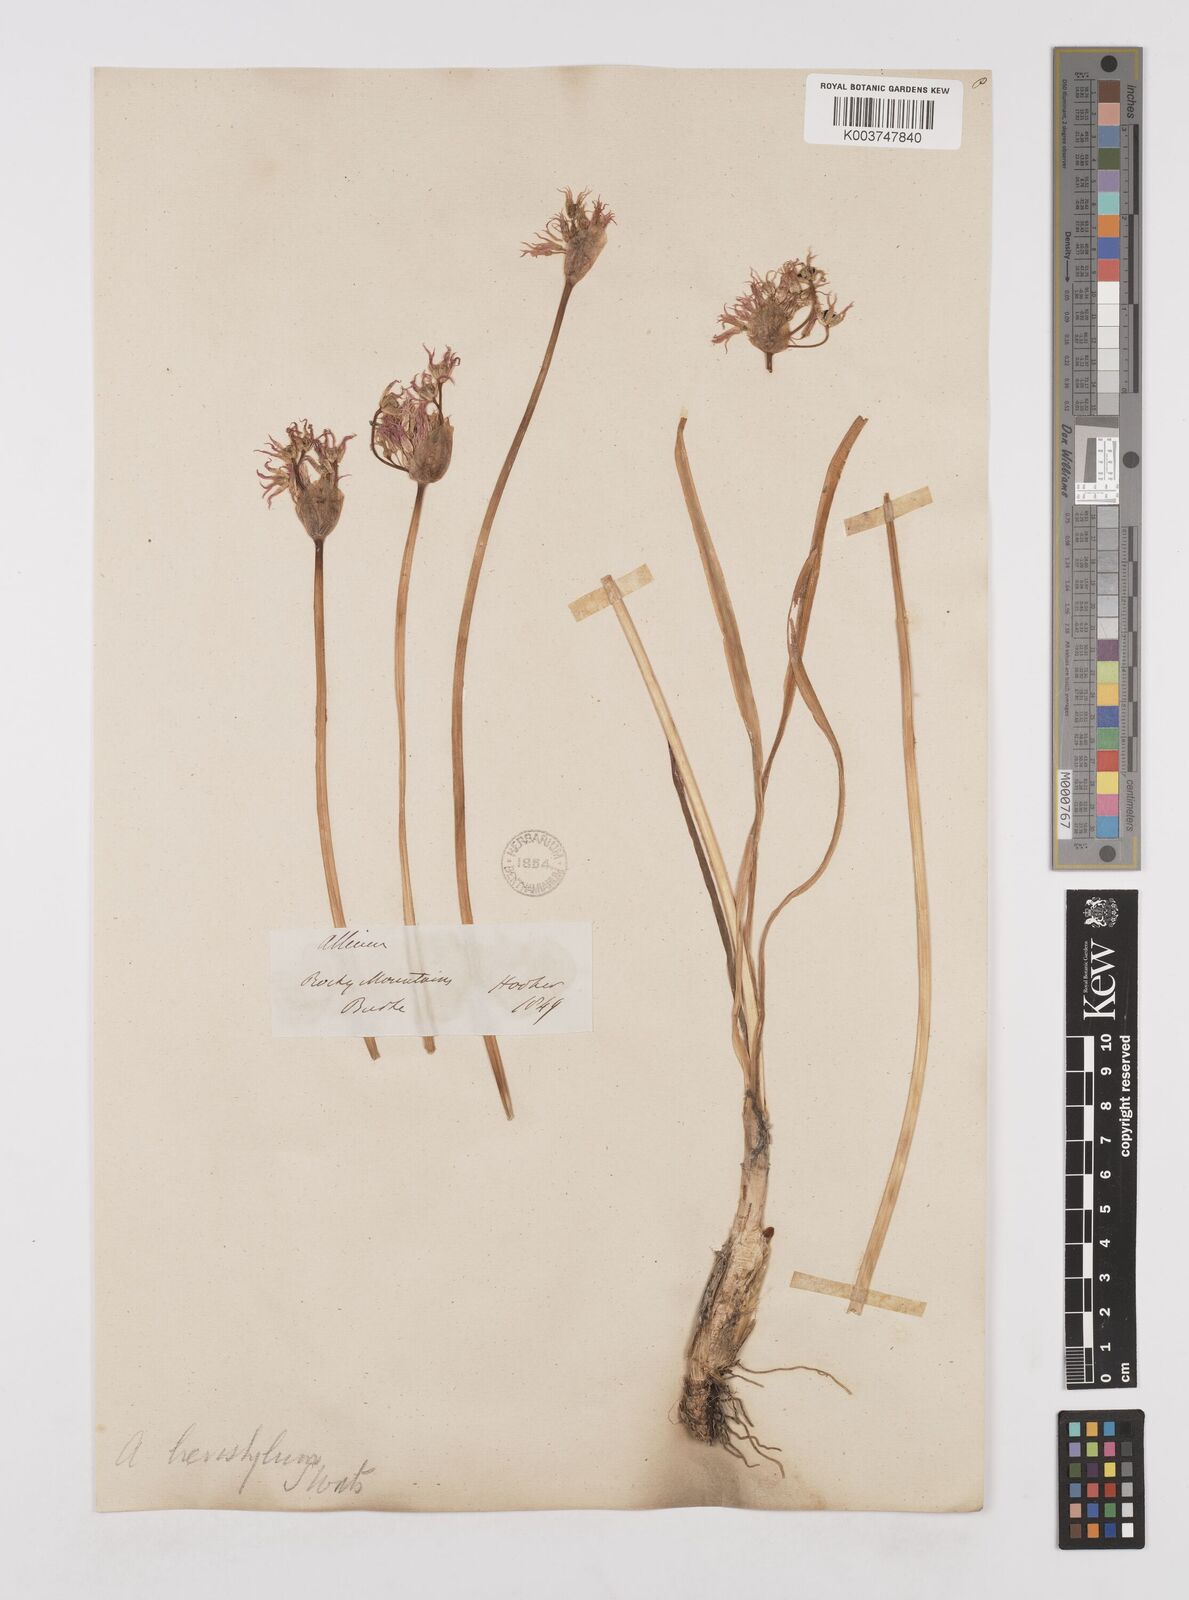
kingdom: Plantae
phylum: Tracheophyta
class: Liliopsida
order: Asparagales
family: Amaryllidaceae
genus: Allium
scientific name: Allium brevistylum
